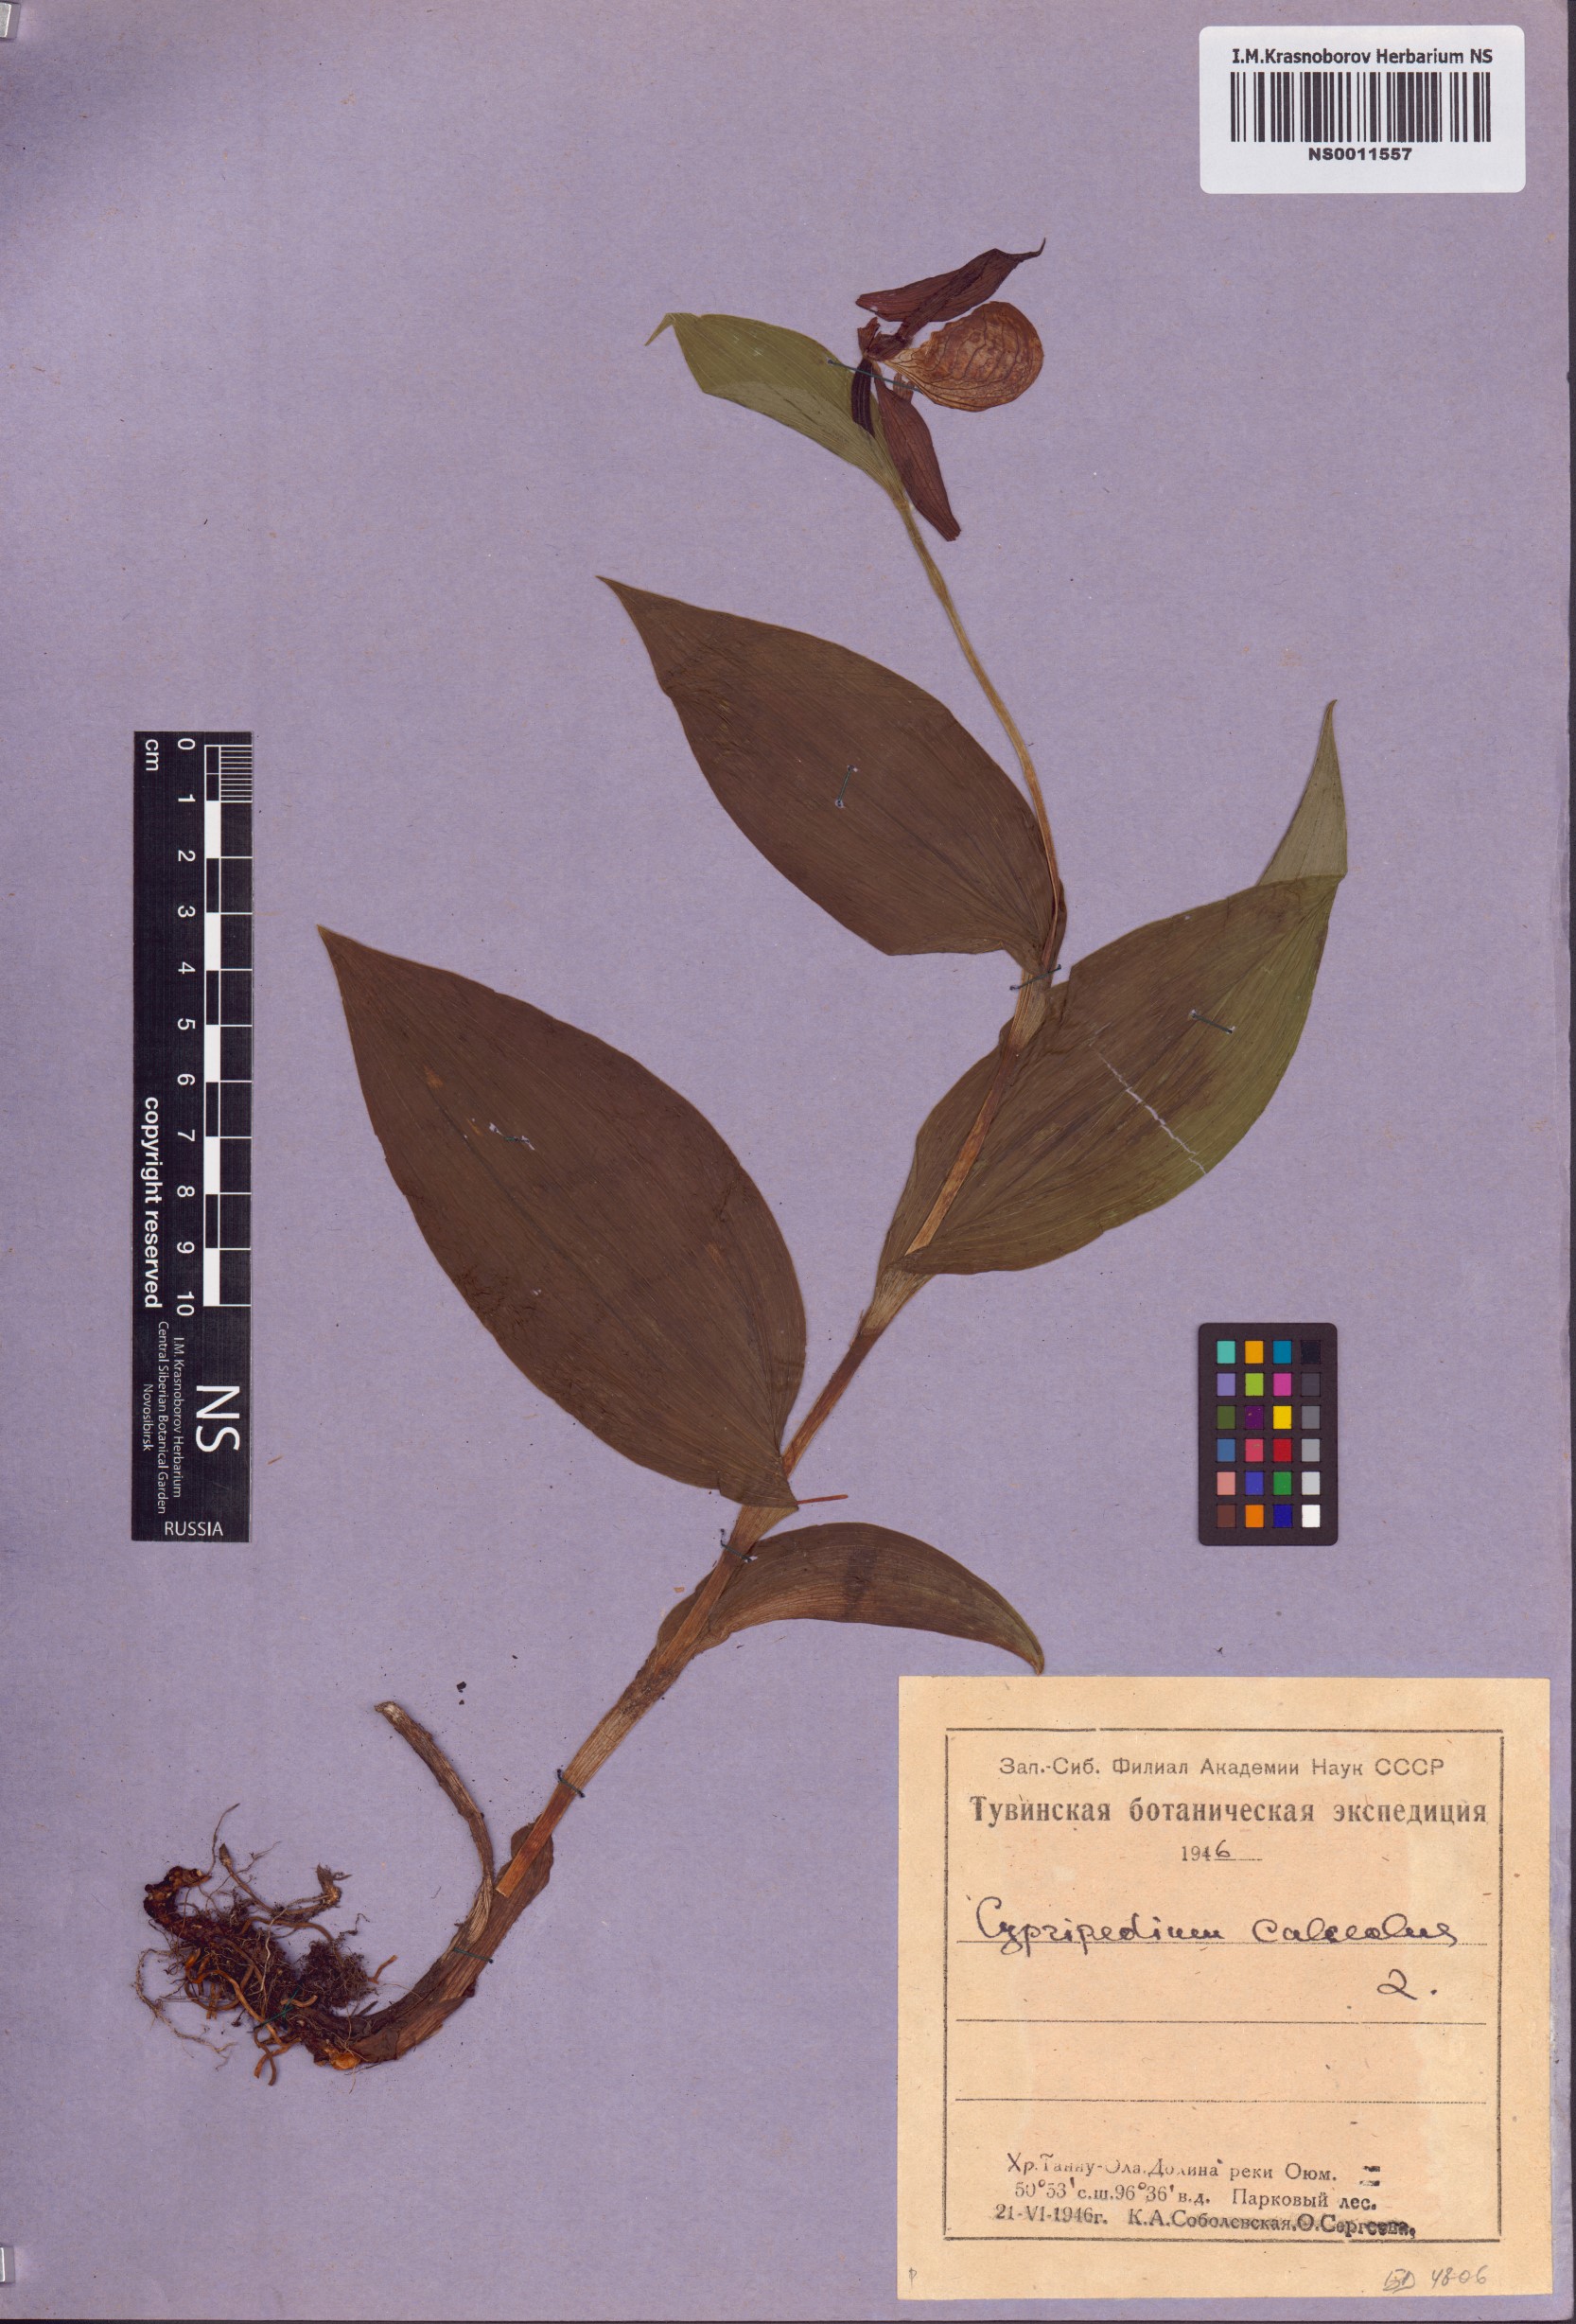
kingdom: Plantae
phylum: Tracheophyta
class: Liliopsida
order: Asparagales
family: Orchidaceae
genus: Cypripedium
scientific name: Cypripedium calceolus
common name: Lady's-slipper
